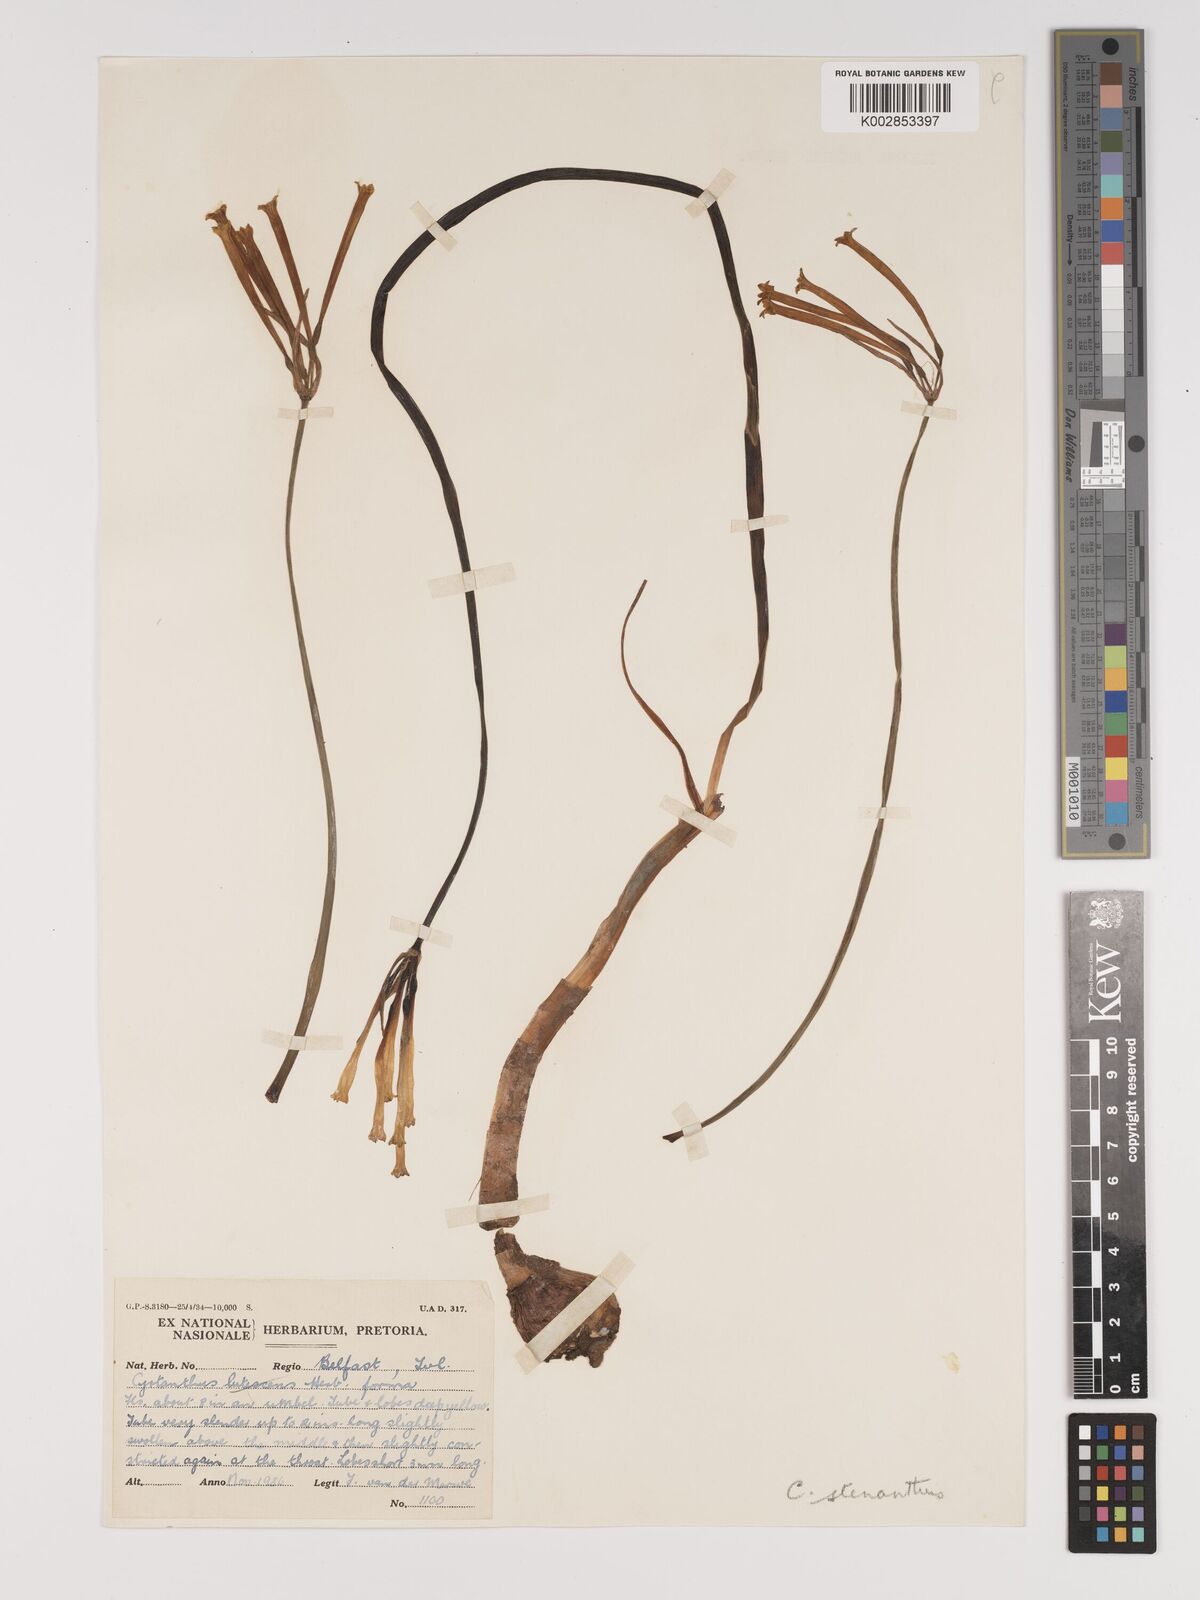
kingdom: Plantae
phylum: Tracheophyta
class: Liliopsida
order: Asparagales
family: Amaryllidaceae
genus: Cyrtanthus
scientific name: Cyrtanthus stenanthus
